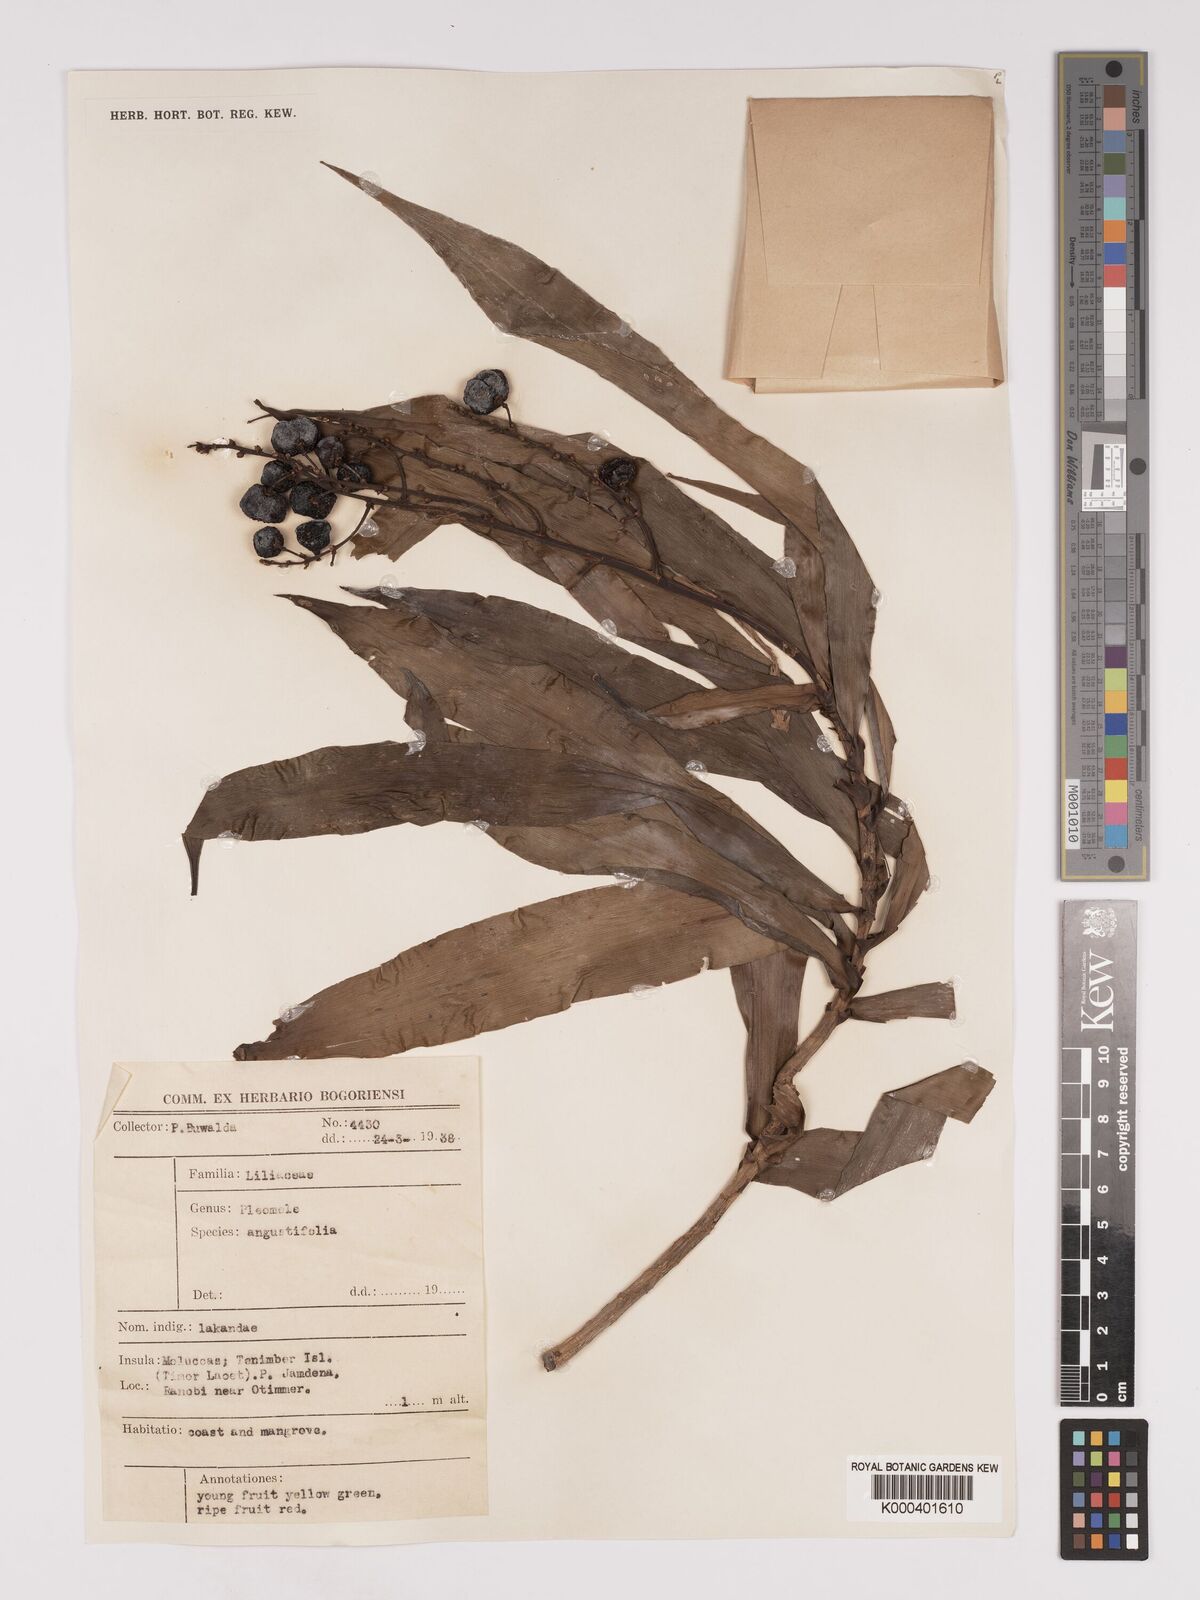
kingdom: Plantae
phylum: Tracheophyta
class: Liliopsida
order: Asparagales
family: Asparagaceae
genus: Dracaena
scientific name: Dracaena angustifolia
